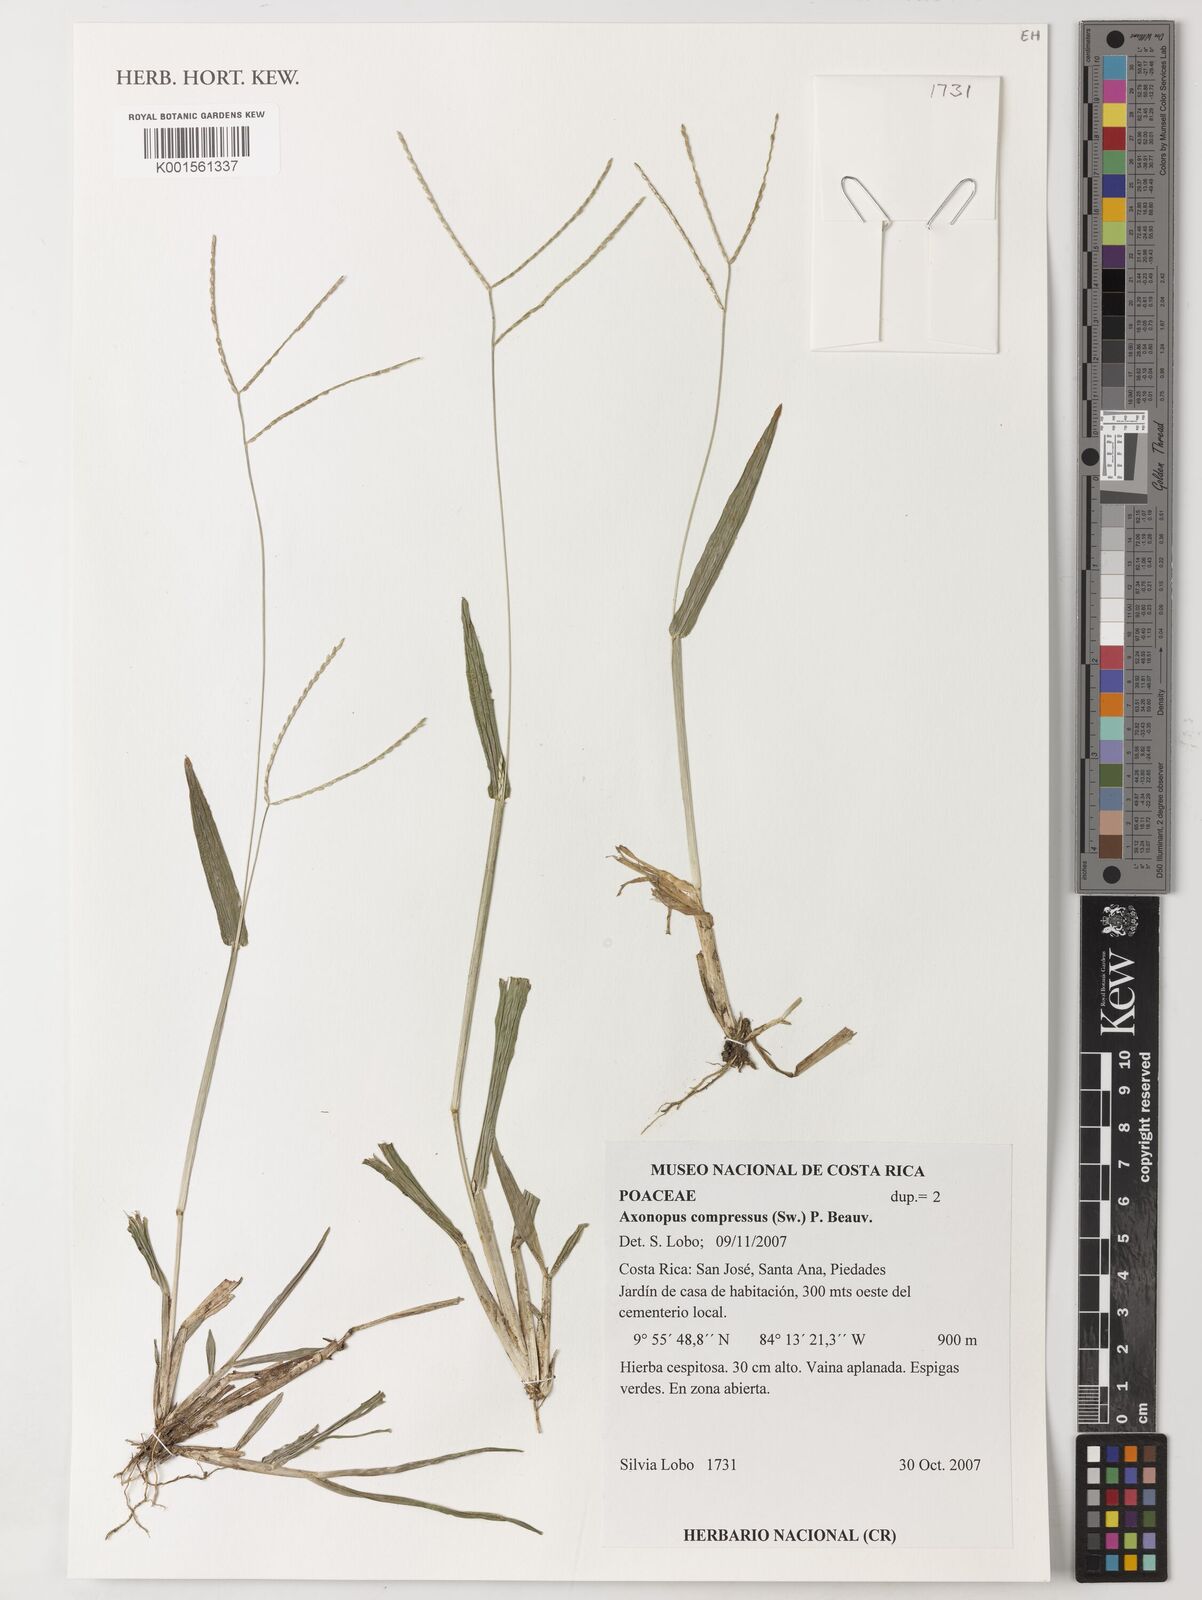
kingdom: Plantae
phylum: Tracheophyta
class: Liliopsida
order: Poales
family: Poaceae
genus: Axonopus
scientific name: Axonopus compressus
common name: American carpet grass
